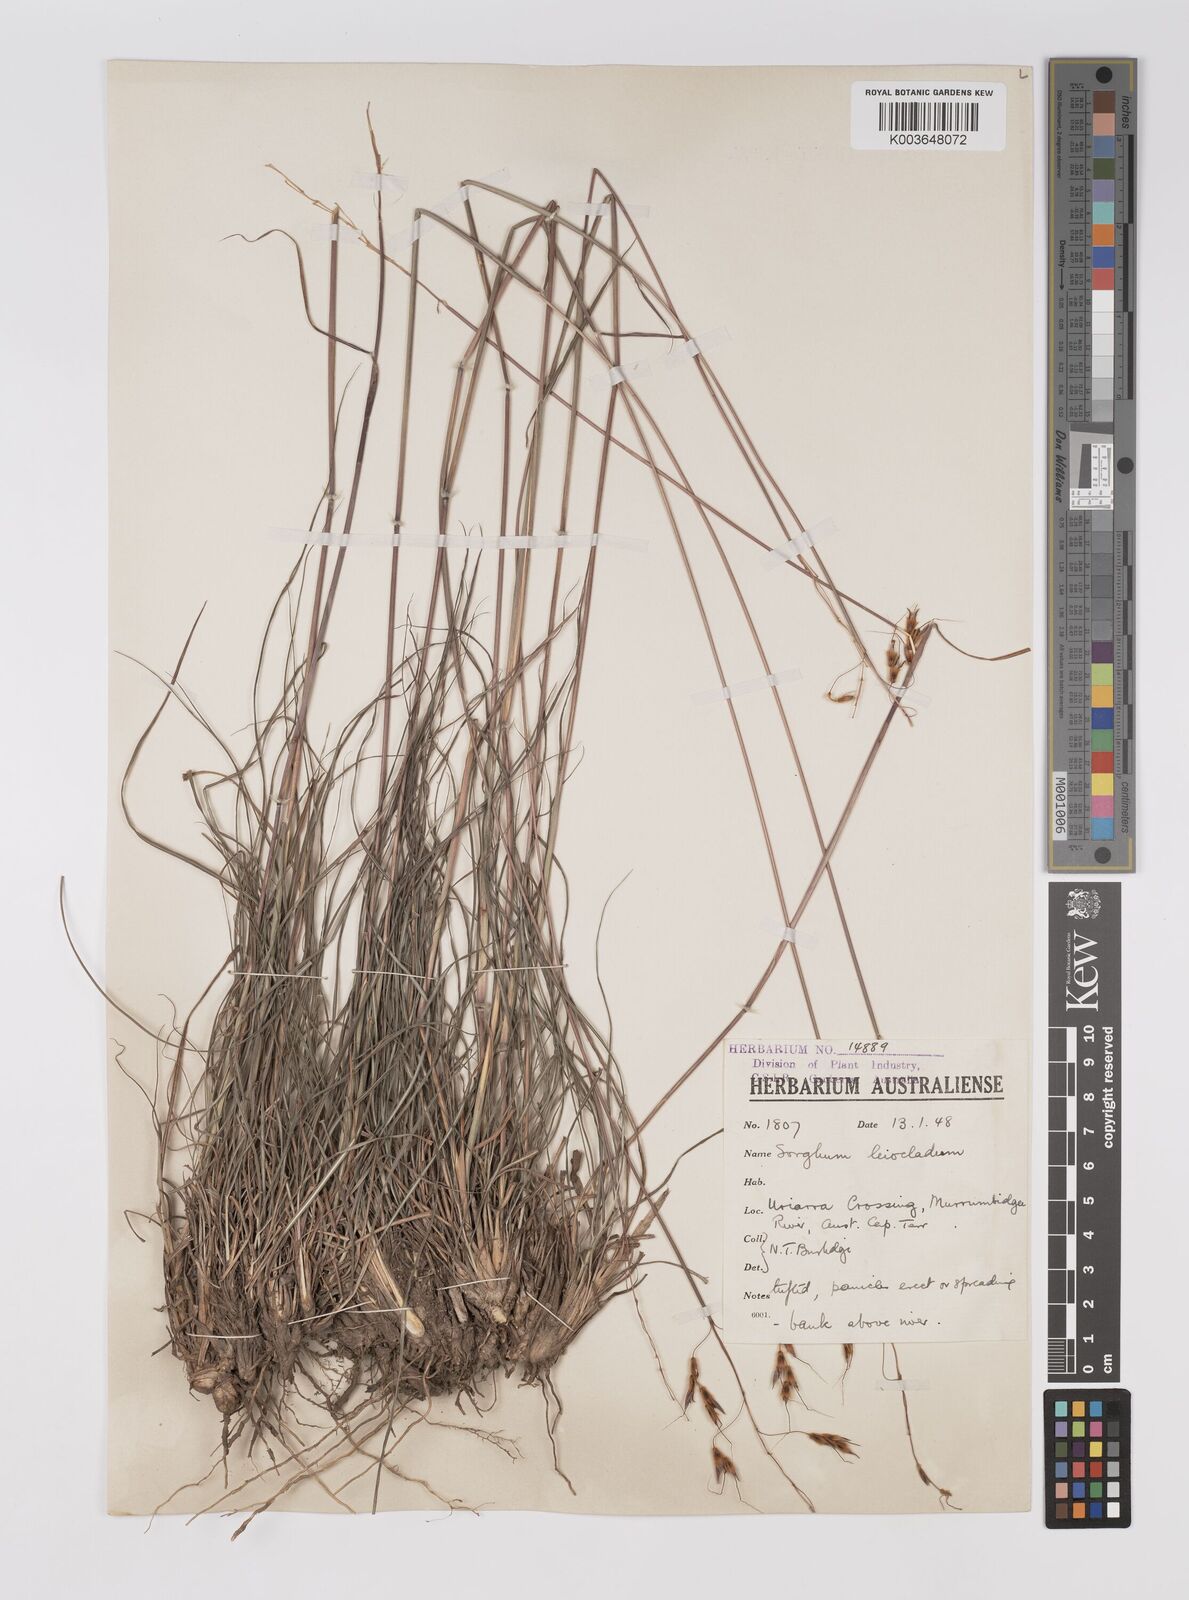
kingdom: Plantae
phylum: Tracheophyta
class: Liliopsida
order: Poales
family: Poaceae
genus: Sarga
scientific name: Sarga leioclada
